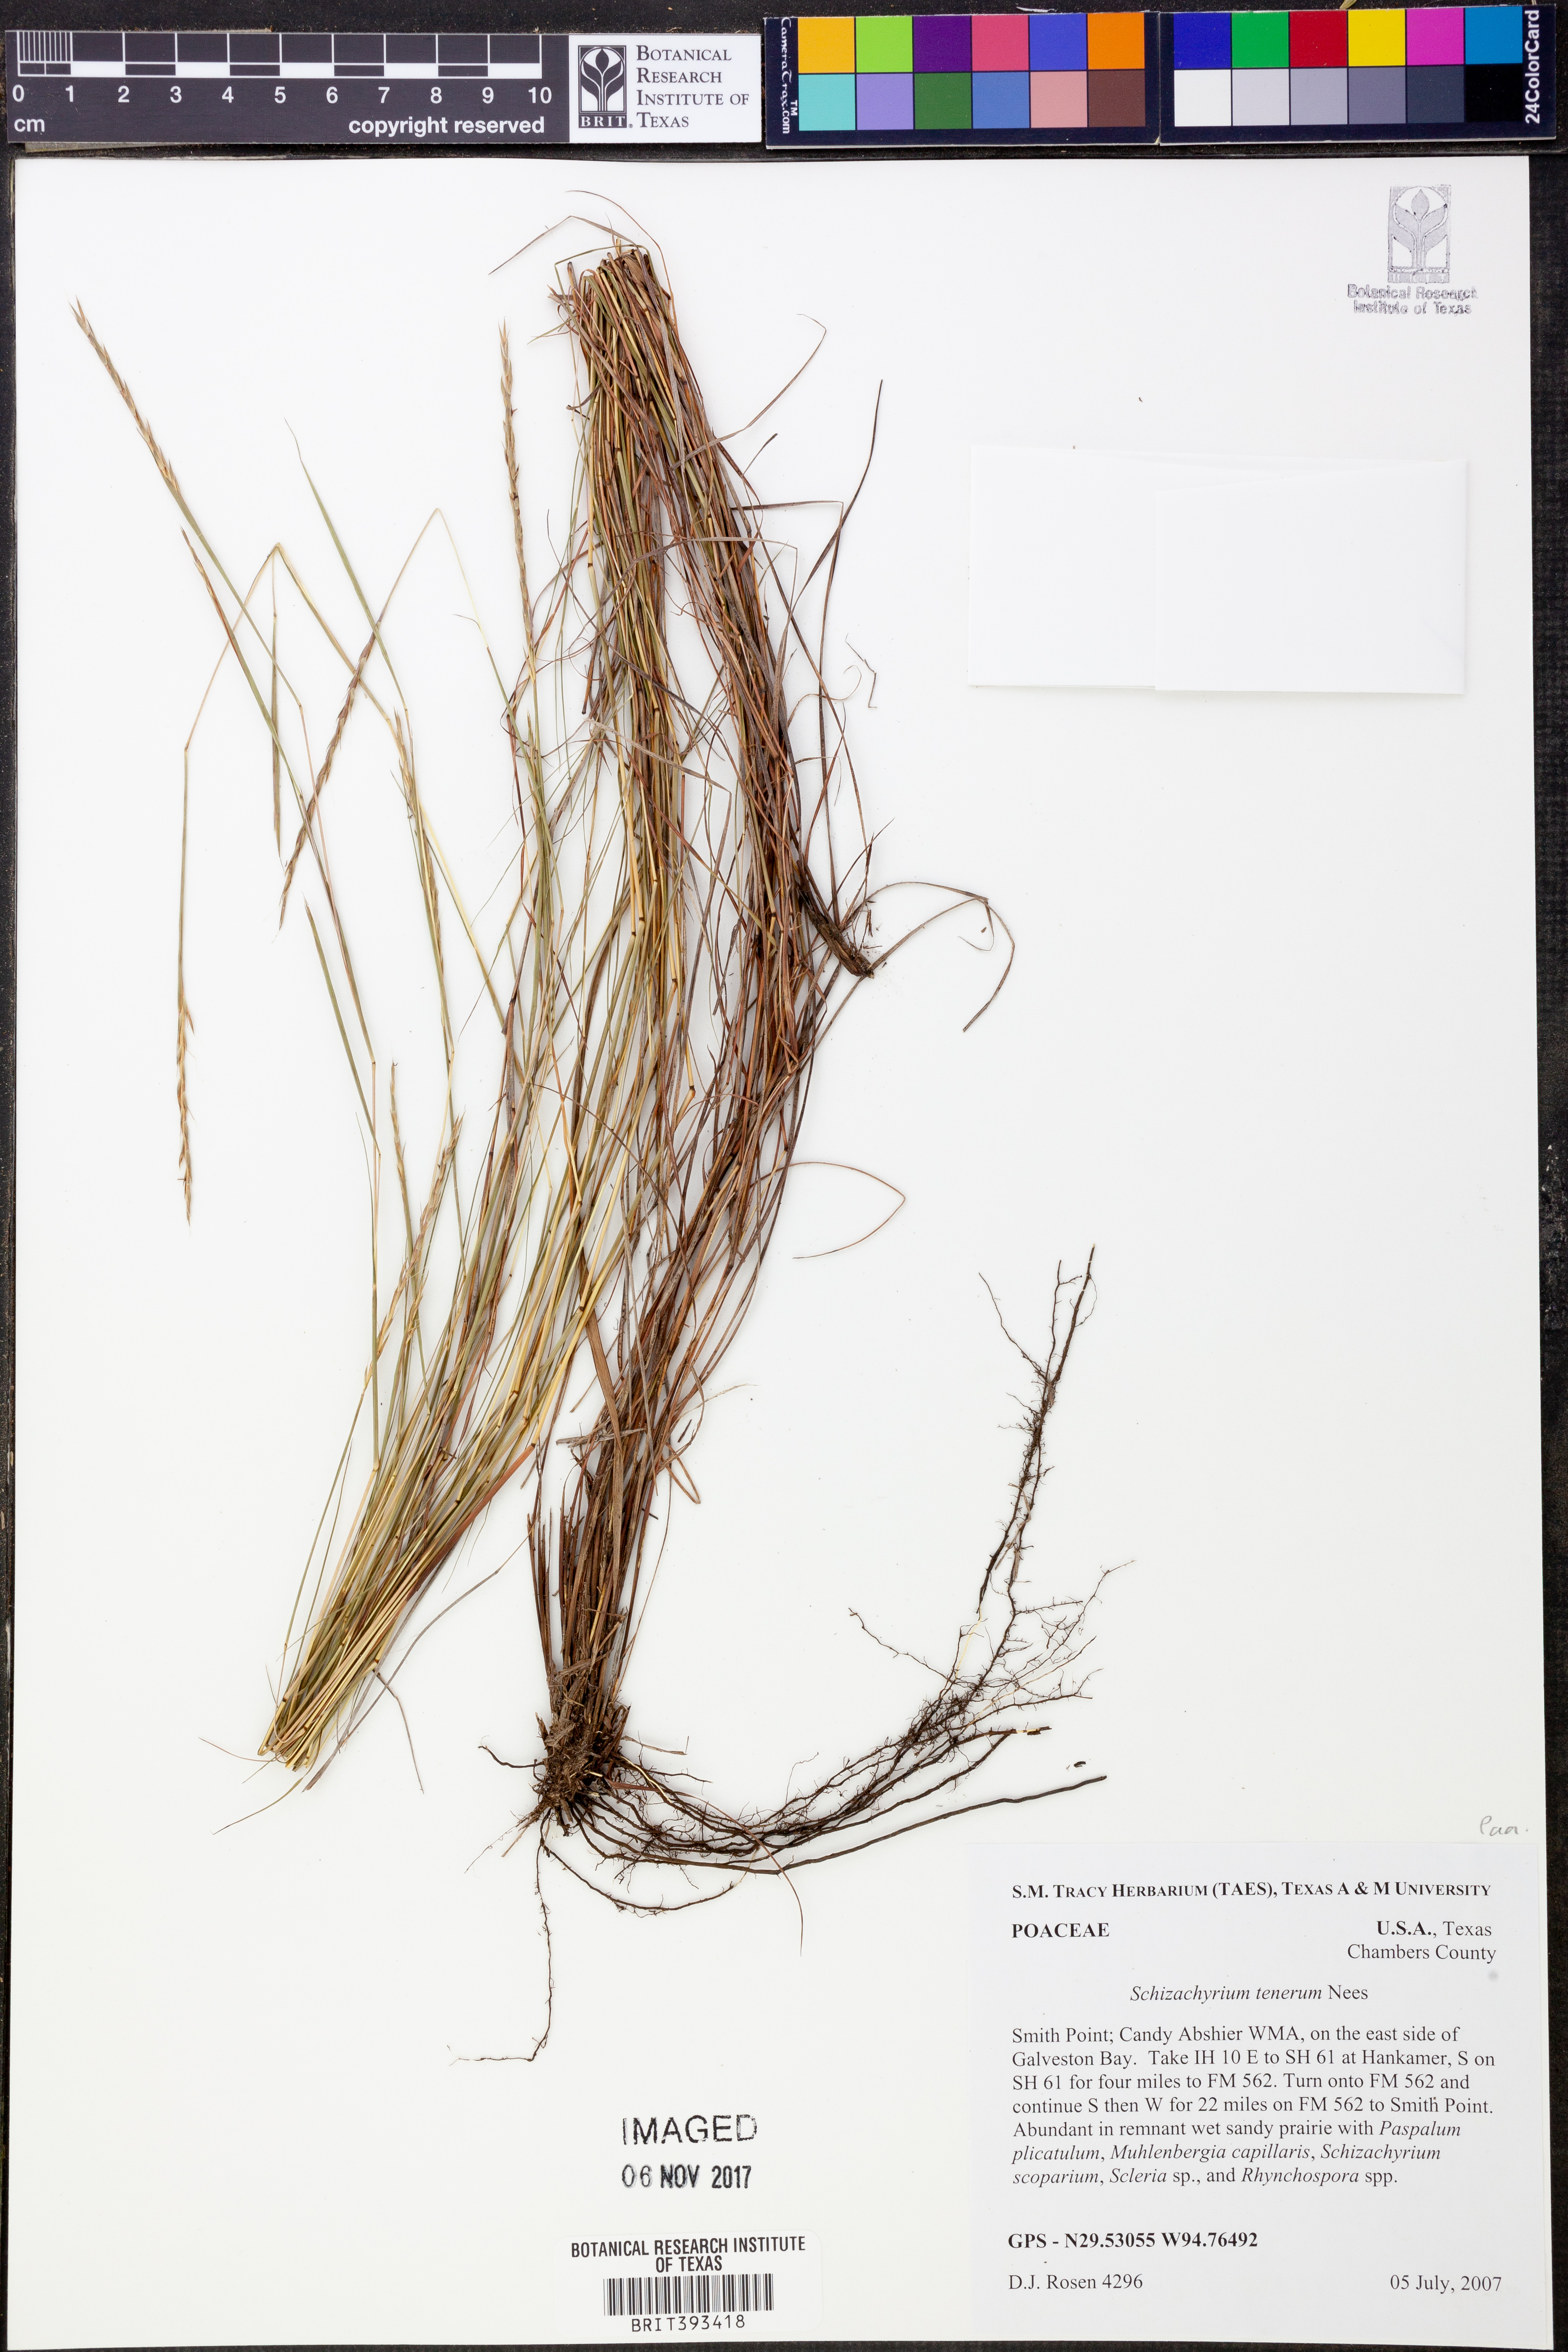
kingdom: Plantae
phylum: Tracheophyta
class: Liliopsida
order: Poales
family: Poaceae
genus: Andropogon
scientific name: Andropogon tener
